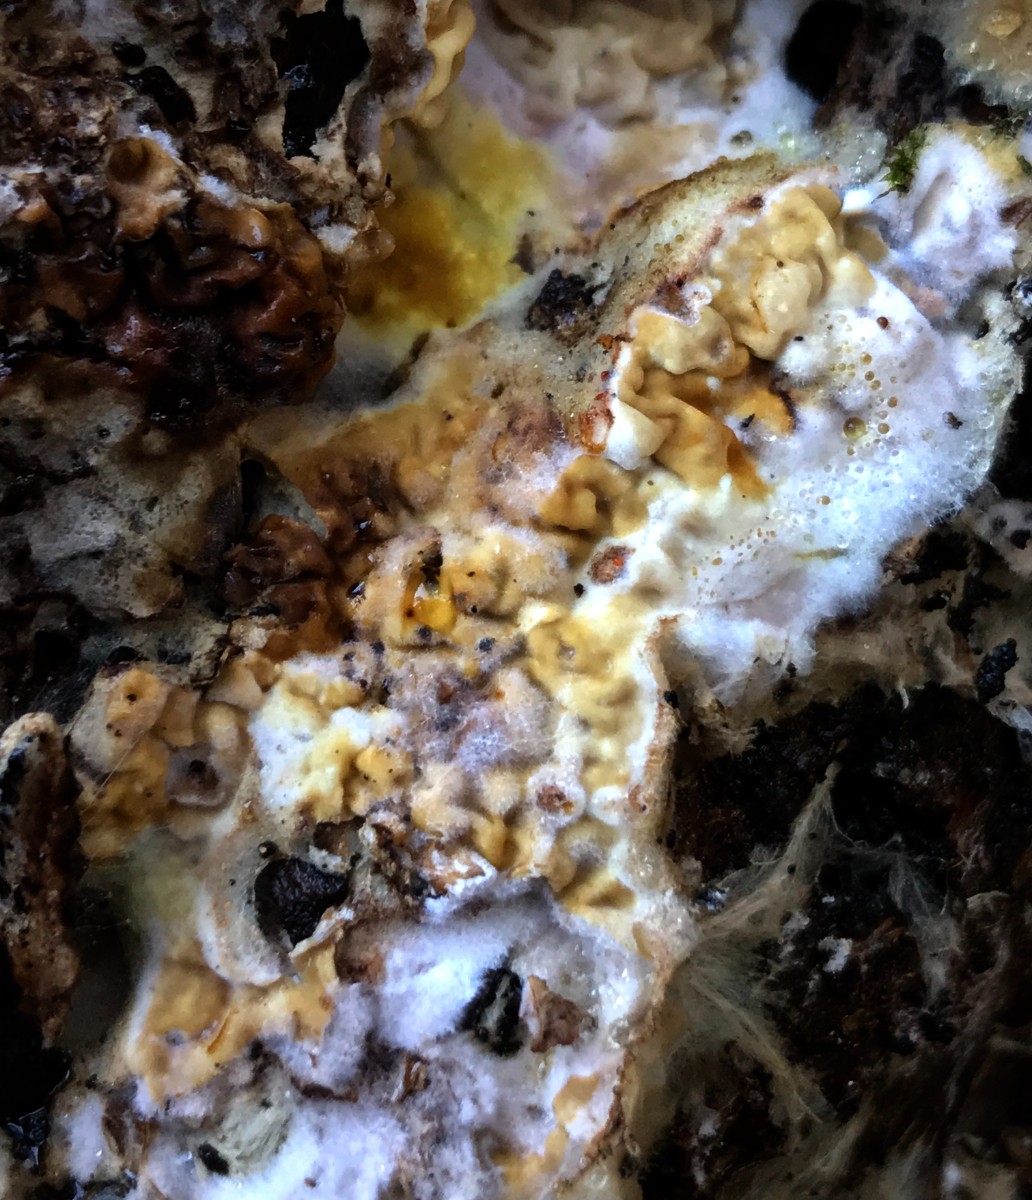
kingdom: Fungi
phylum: Basidiomycota
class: Agaricomycetes
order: Boletales
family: Serpulaceae
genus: Serpula
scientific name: Serpula himantioides
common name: tyndkødet hussvamp
